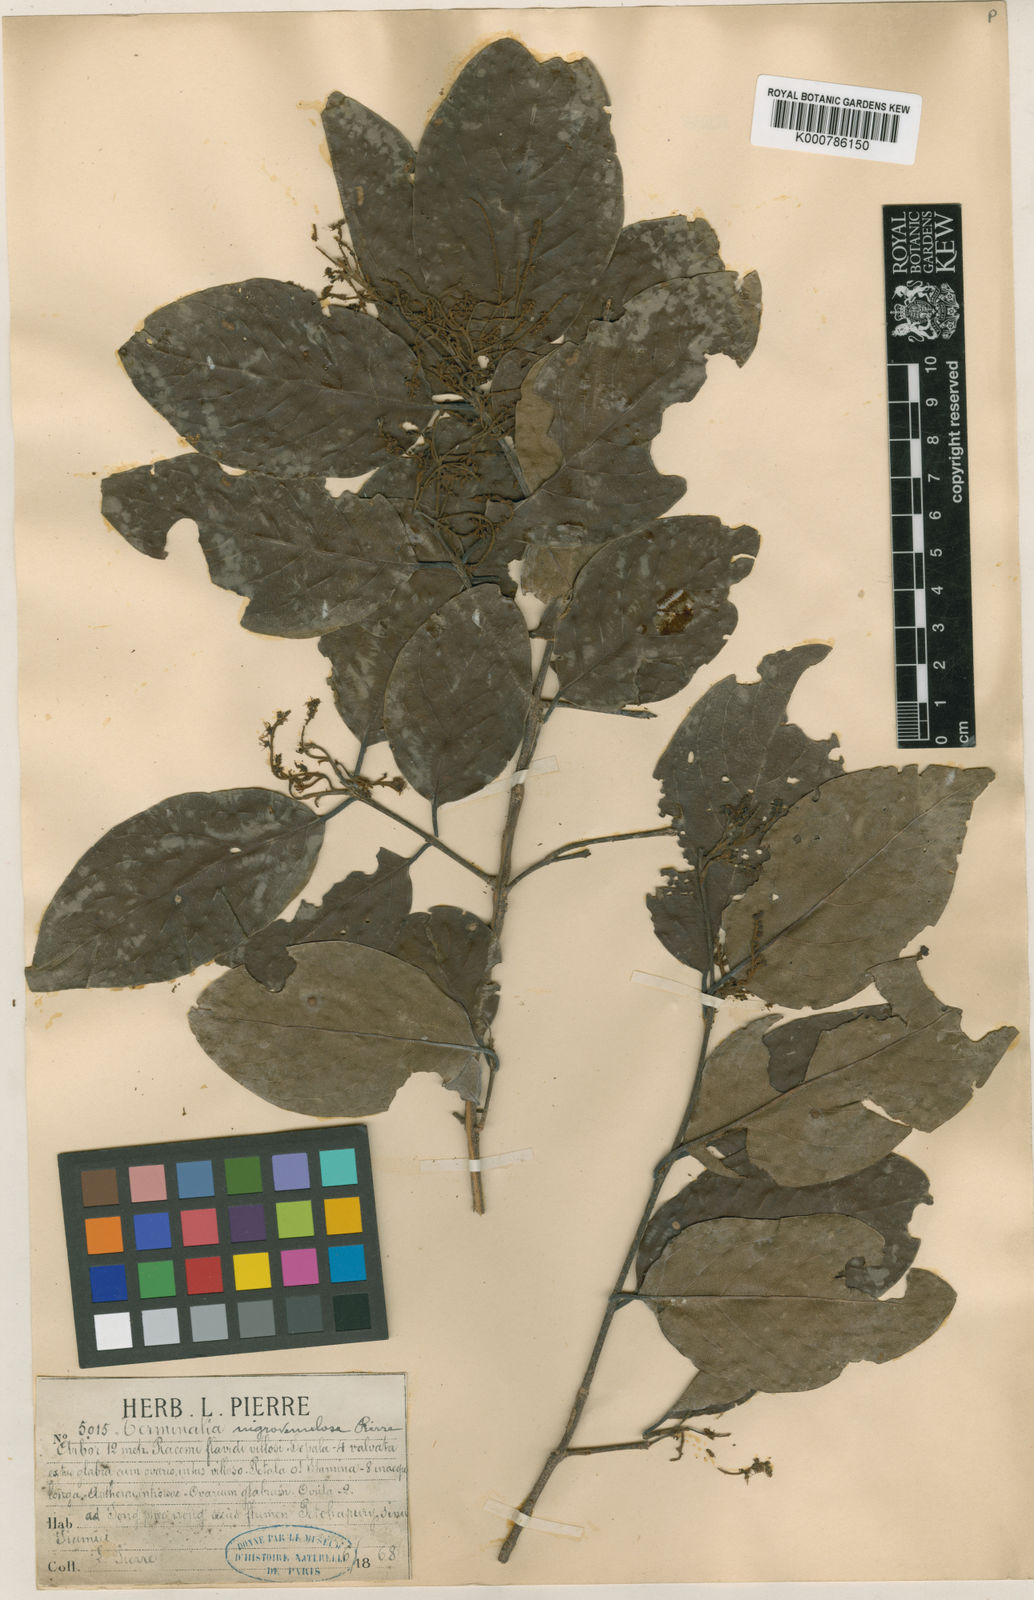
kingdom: Plantae
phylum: Tracheophyta
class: Magnoliopsida
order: Myrtales
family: Combretaceae
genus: Terminalia
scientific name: Terminalia franchetii
